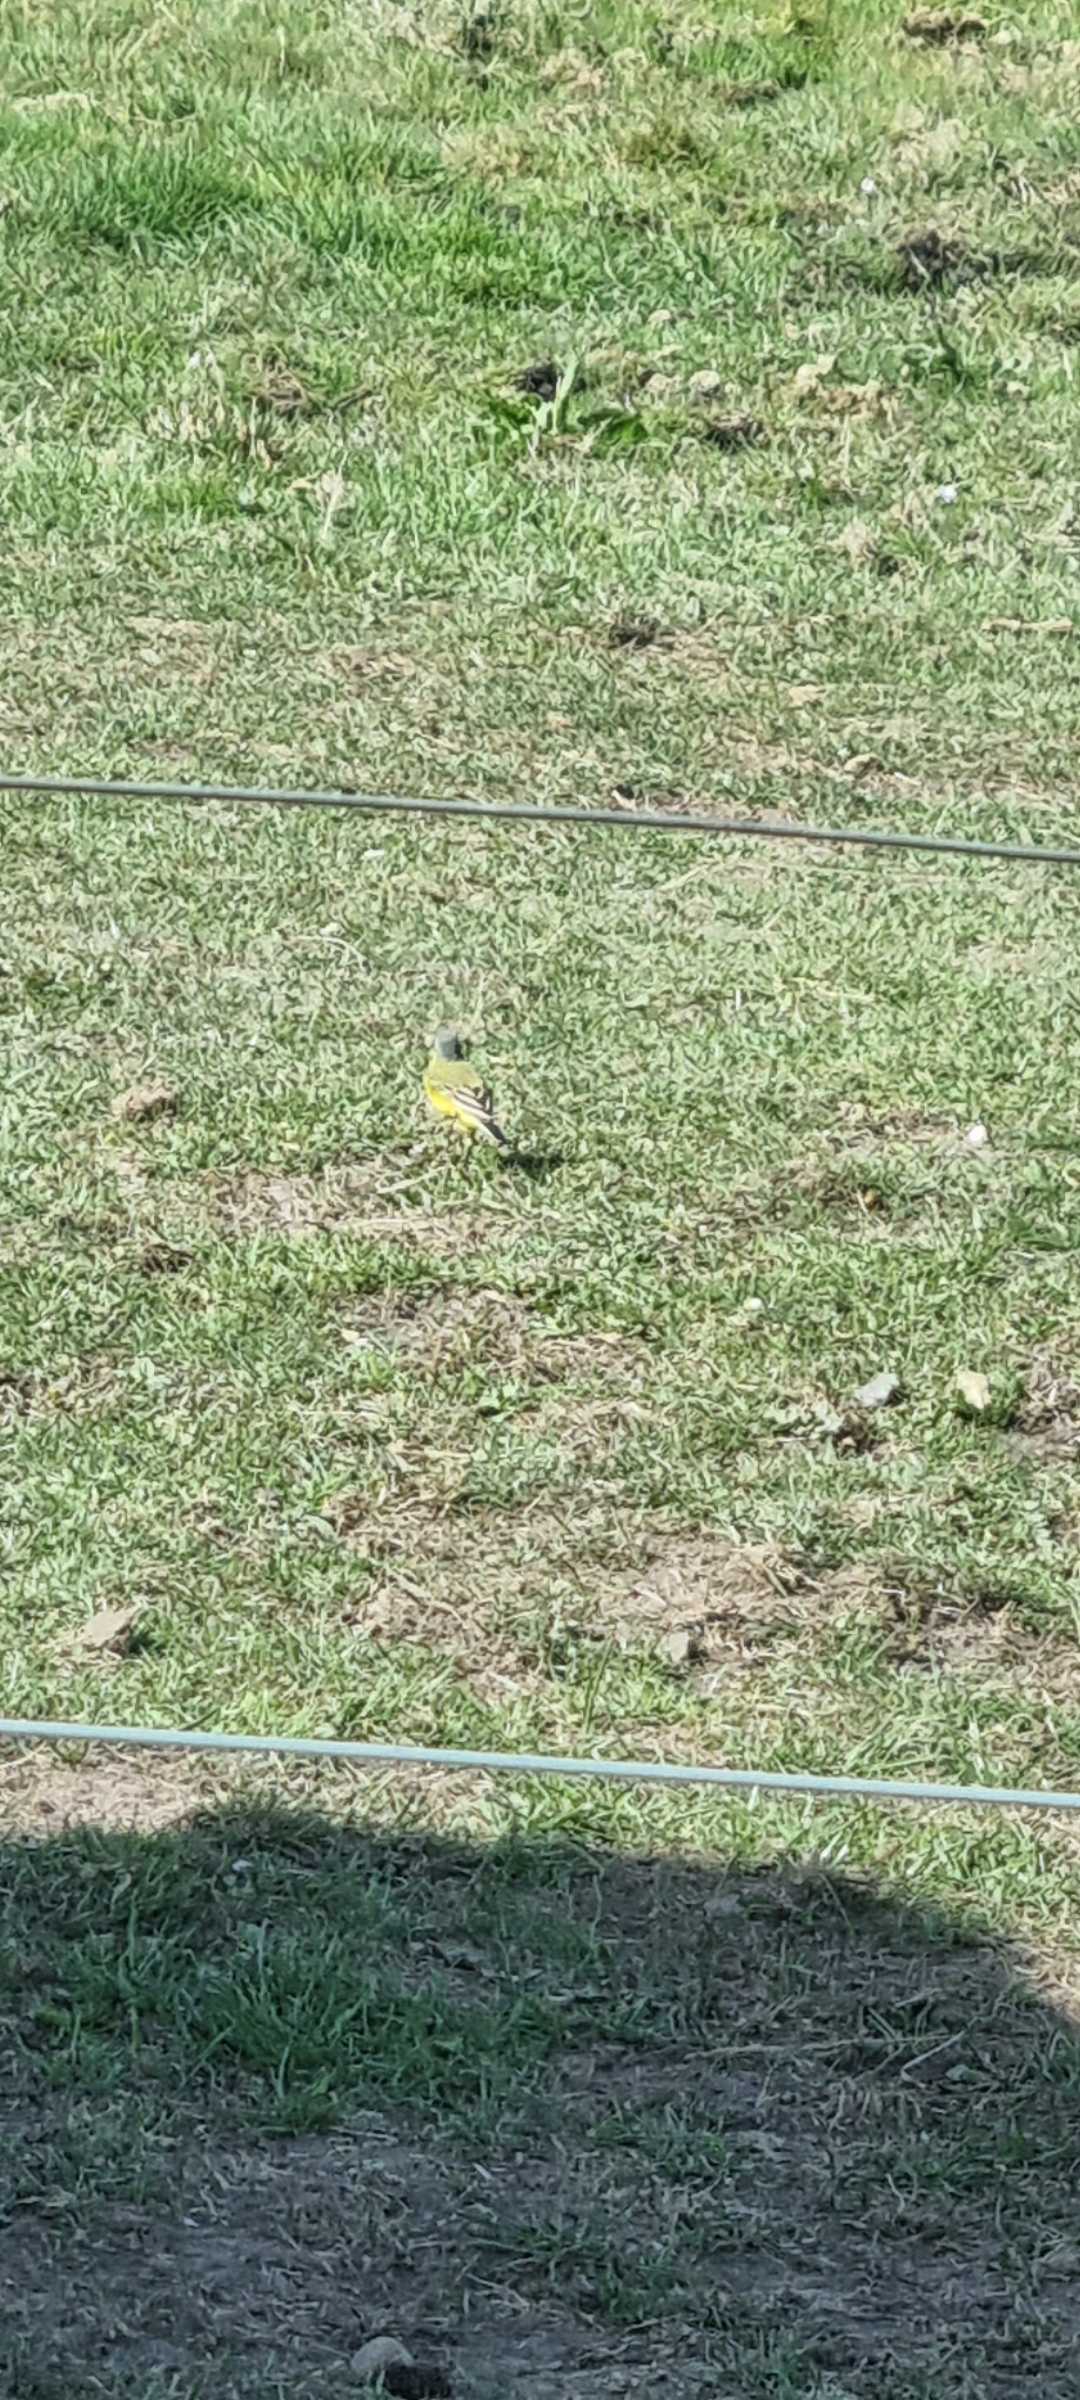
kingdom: Animalia
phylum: Chordata
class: Aves
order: Passeriformes
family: Motacillidae
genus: Motacilla
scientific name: Motacilla flava
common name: Gul vipstjert
